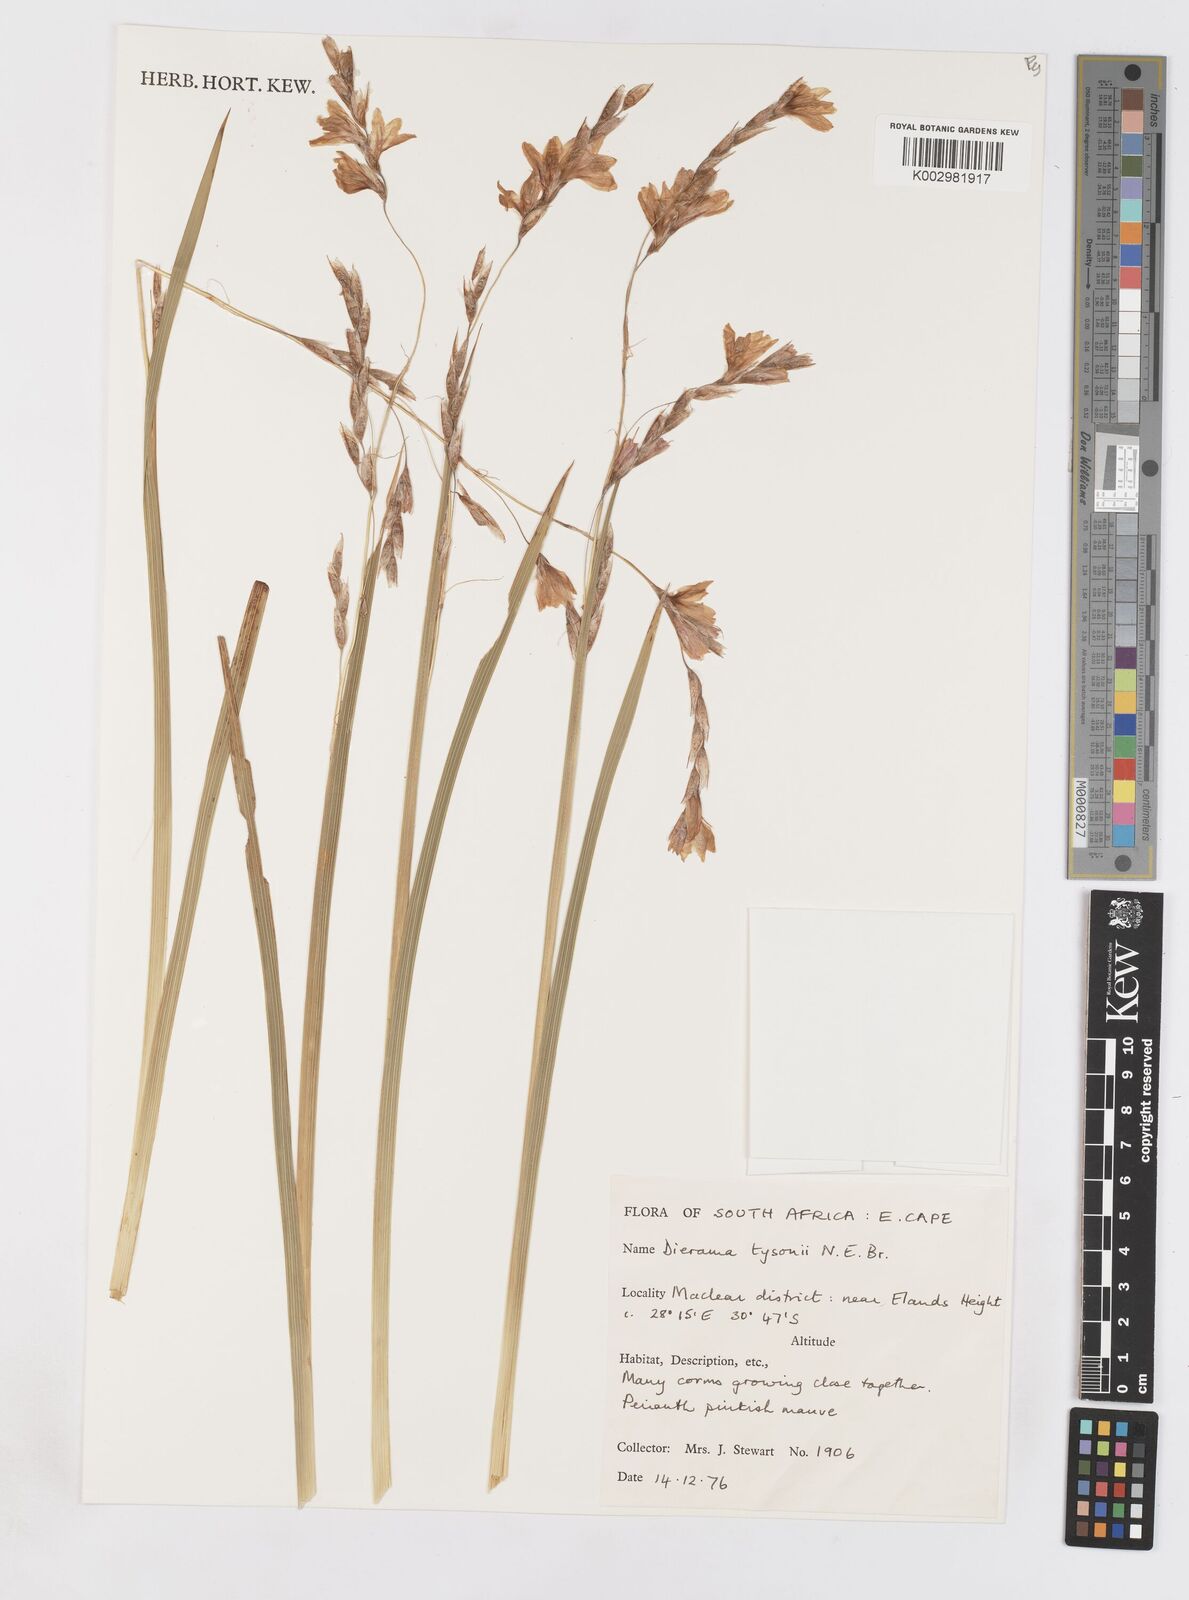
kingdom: Plantae
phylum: Tracheophyta
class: Liliopsida
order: Asparagales
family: Iridaceae
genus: Dierama
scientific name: Dierama tysonii
